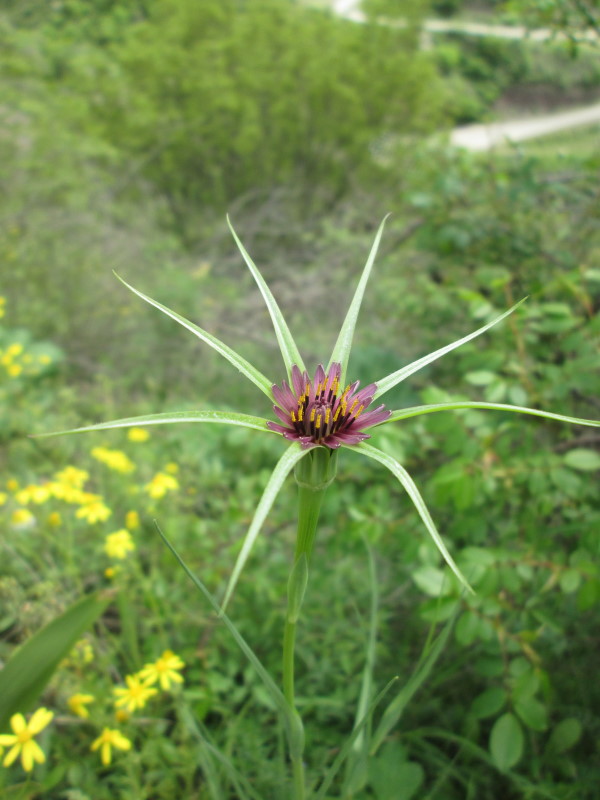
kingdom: Plantae
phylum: Tracheophyta
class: Magnoliopsida
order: Asterales
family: Asteraceae
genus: Tragopogon
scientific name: Tragopogon coelesyriacus
